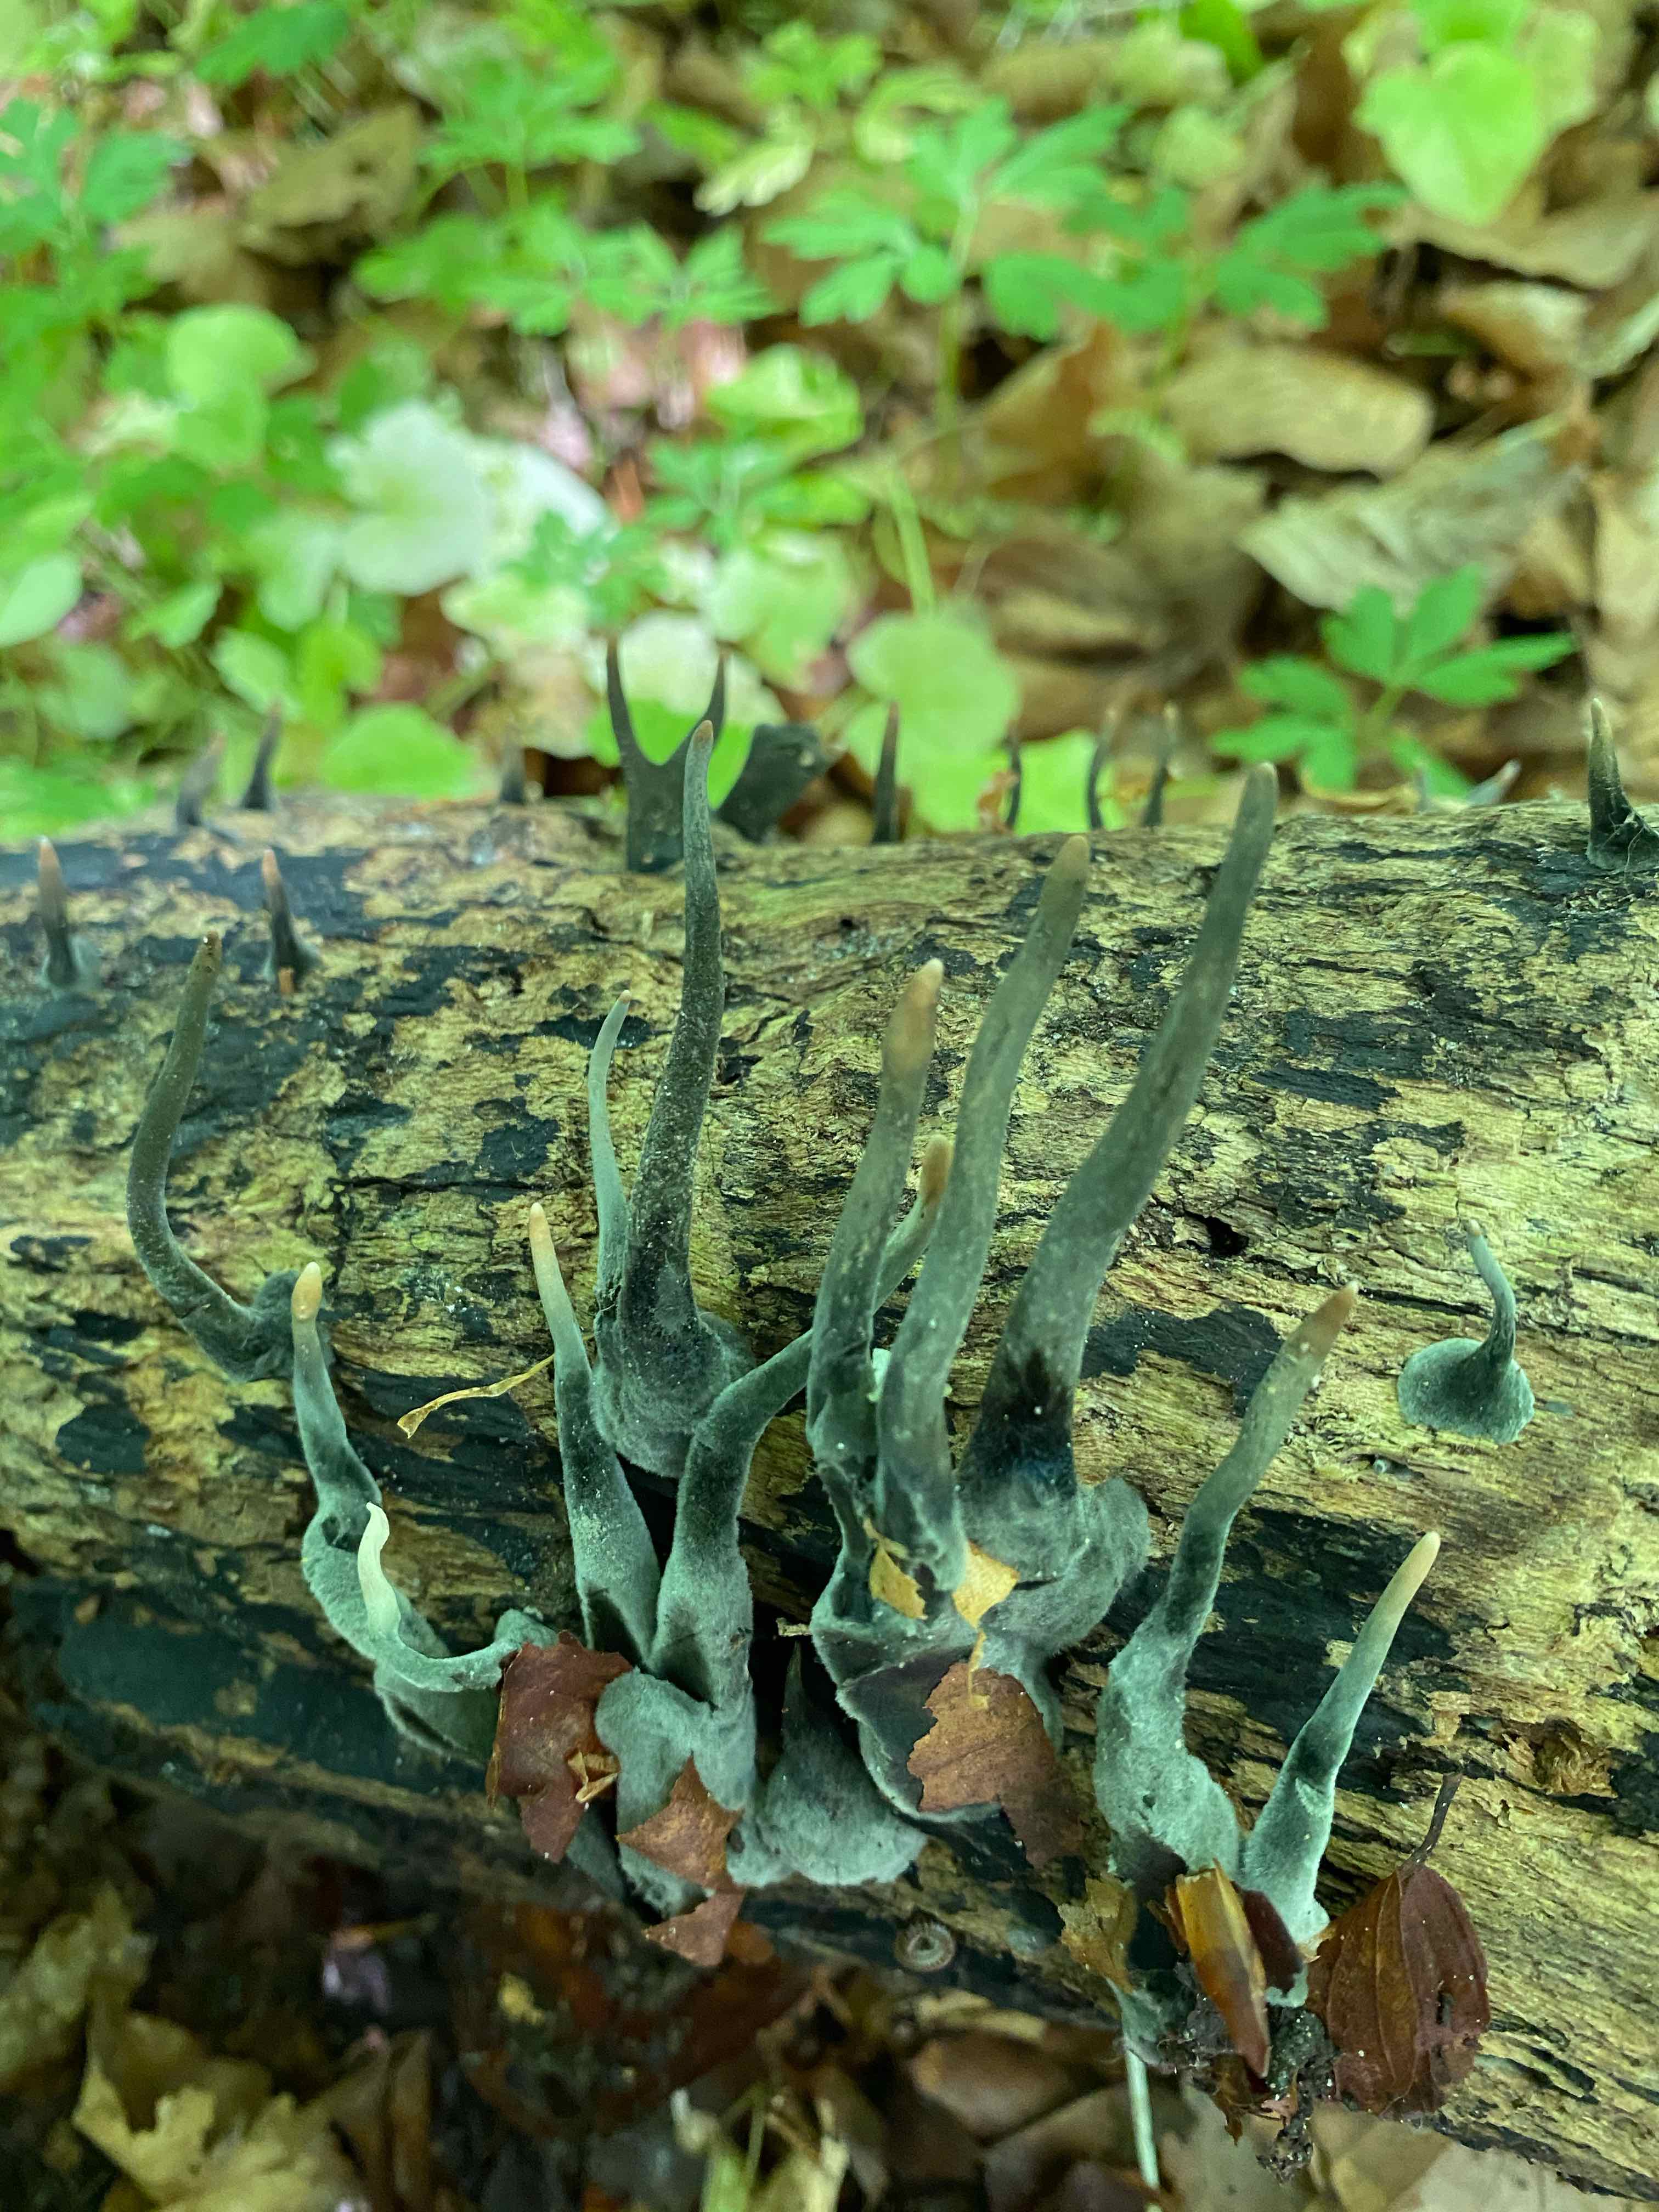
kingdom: Fungi
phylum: Ascomycota
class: Sordariomycetes
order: Xylariales
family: Xylariaceae
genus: Xylaria
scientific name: Xylaria longipes
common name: slank stødsvamp
